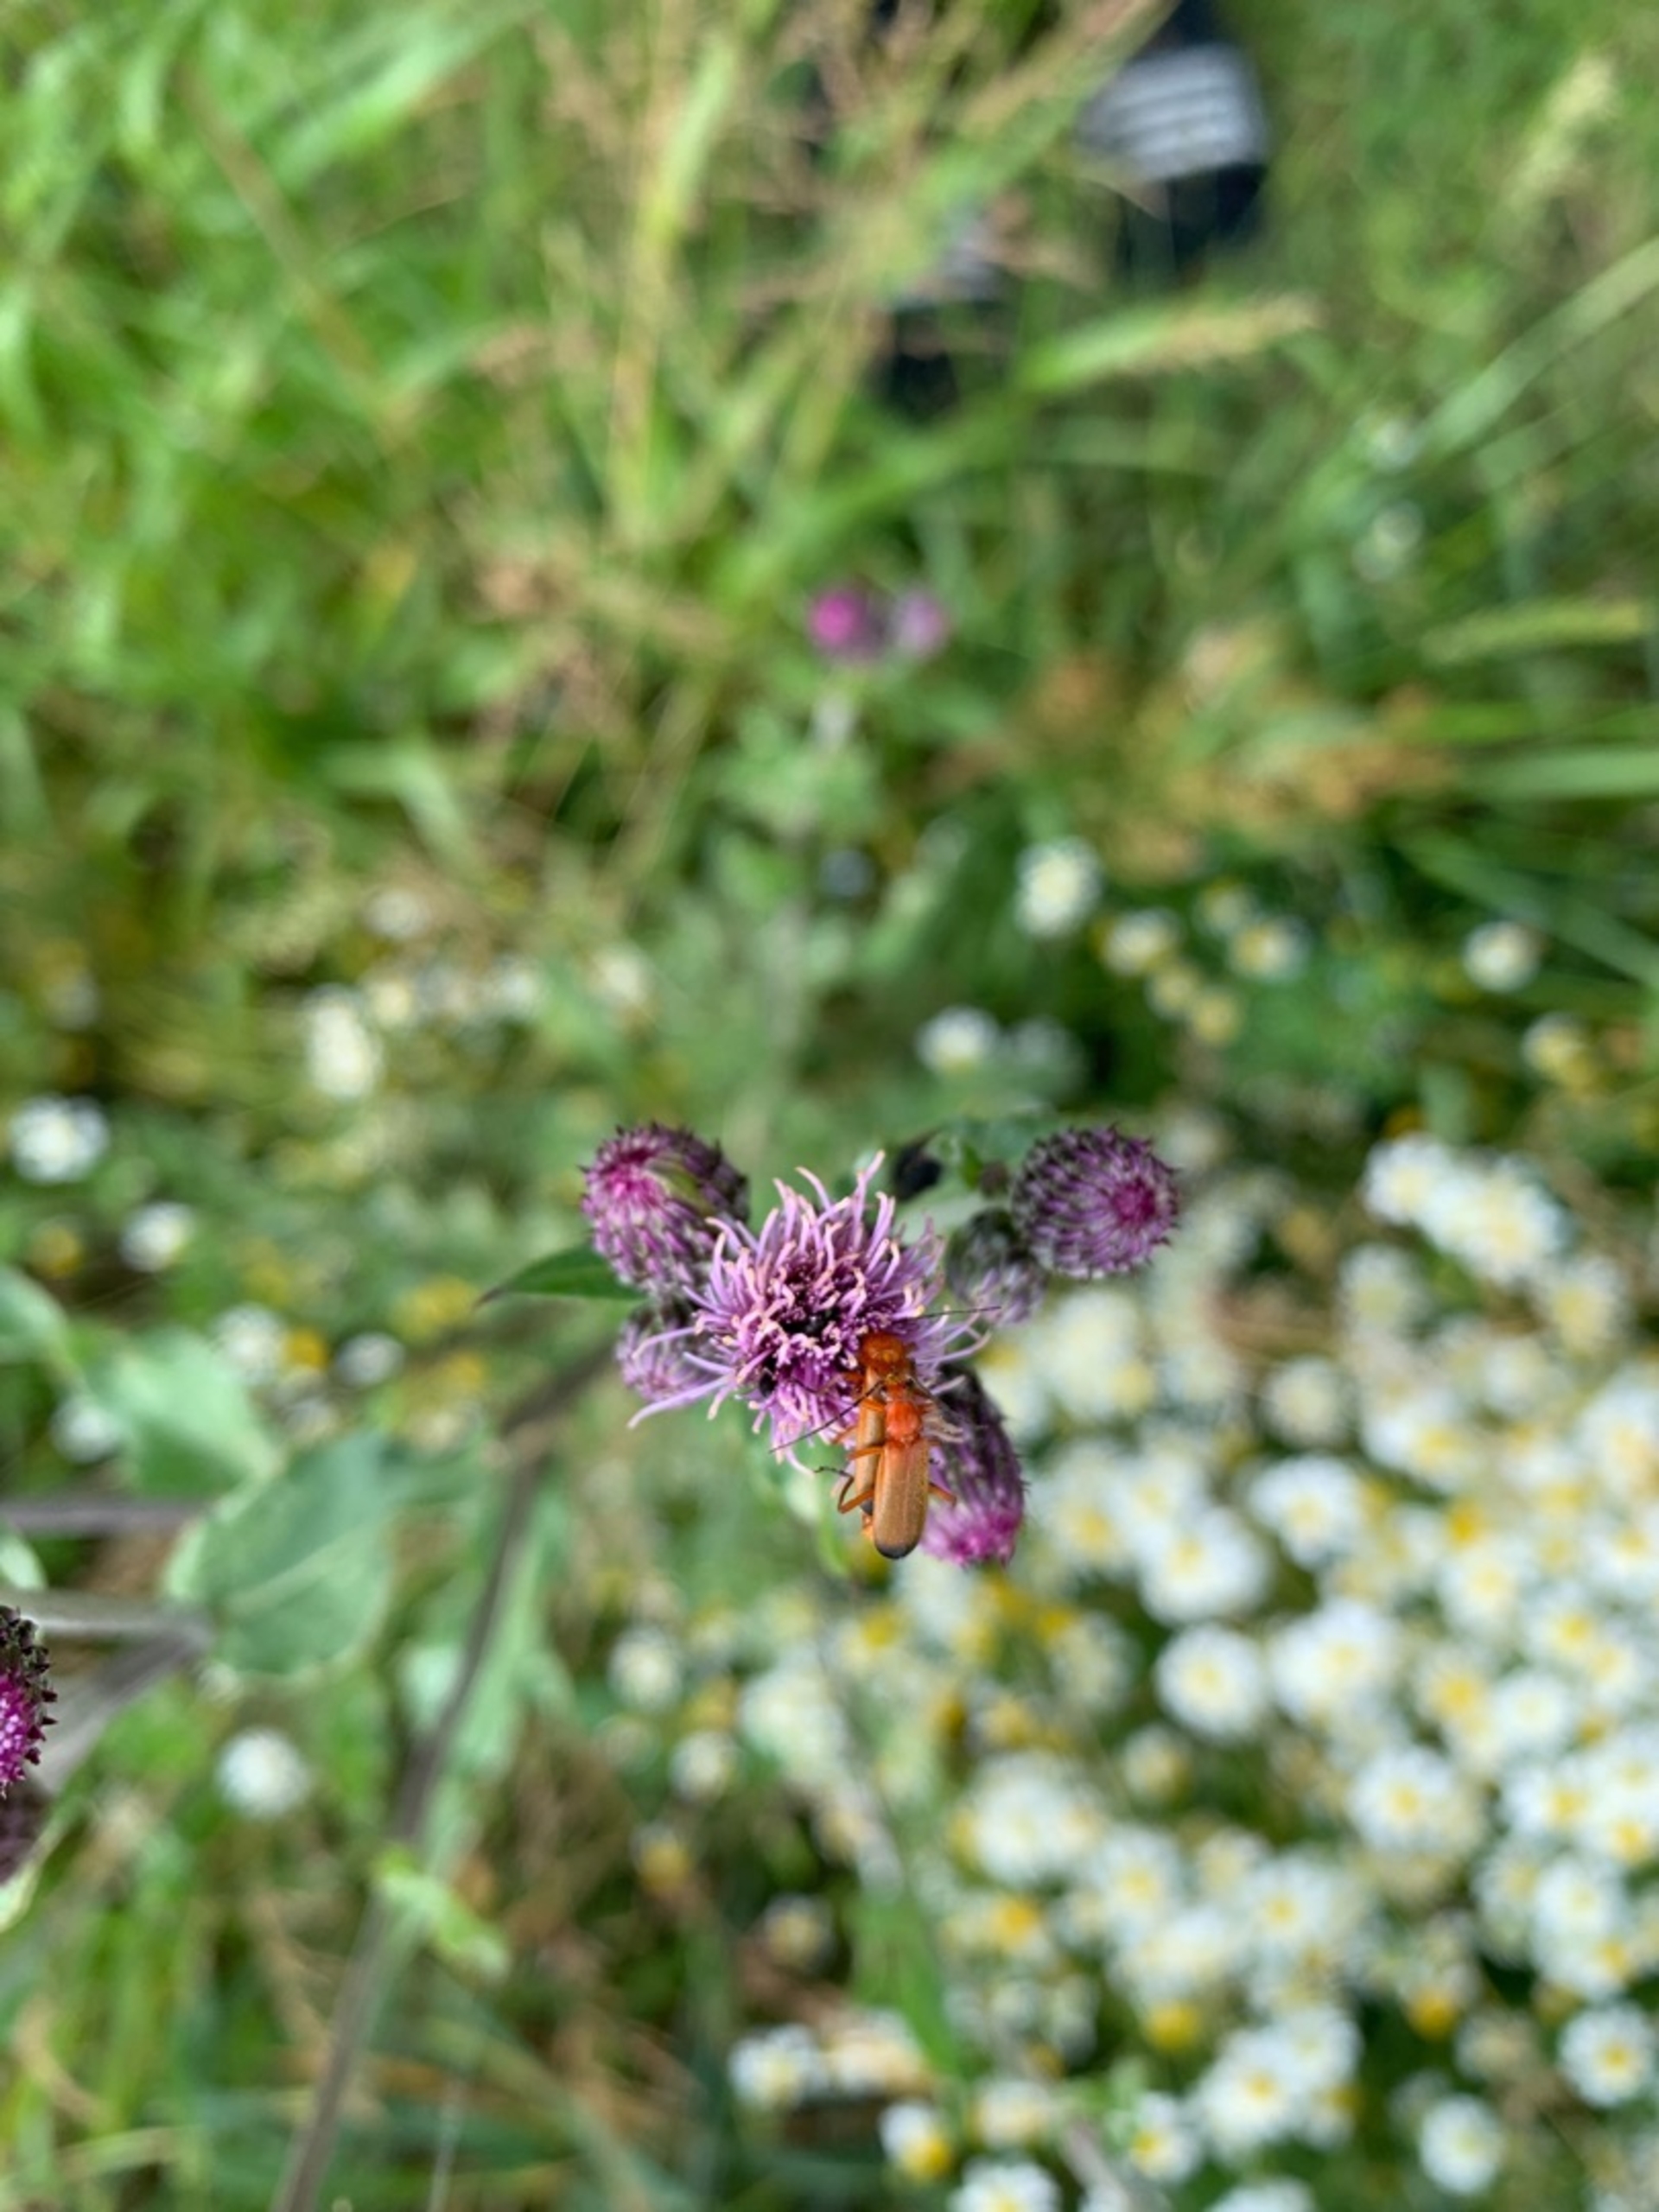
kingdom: Animalia
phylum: Arthropoda
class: Insecta
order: Coleoptera
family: Cantharidae
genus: Rhagonycha
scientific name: Rhagonycha fulva
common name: Præstebille
